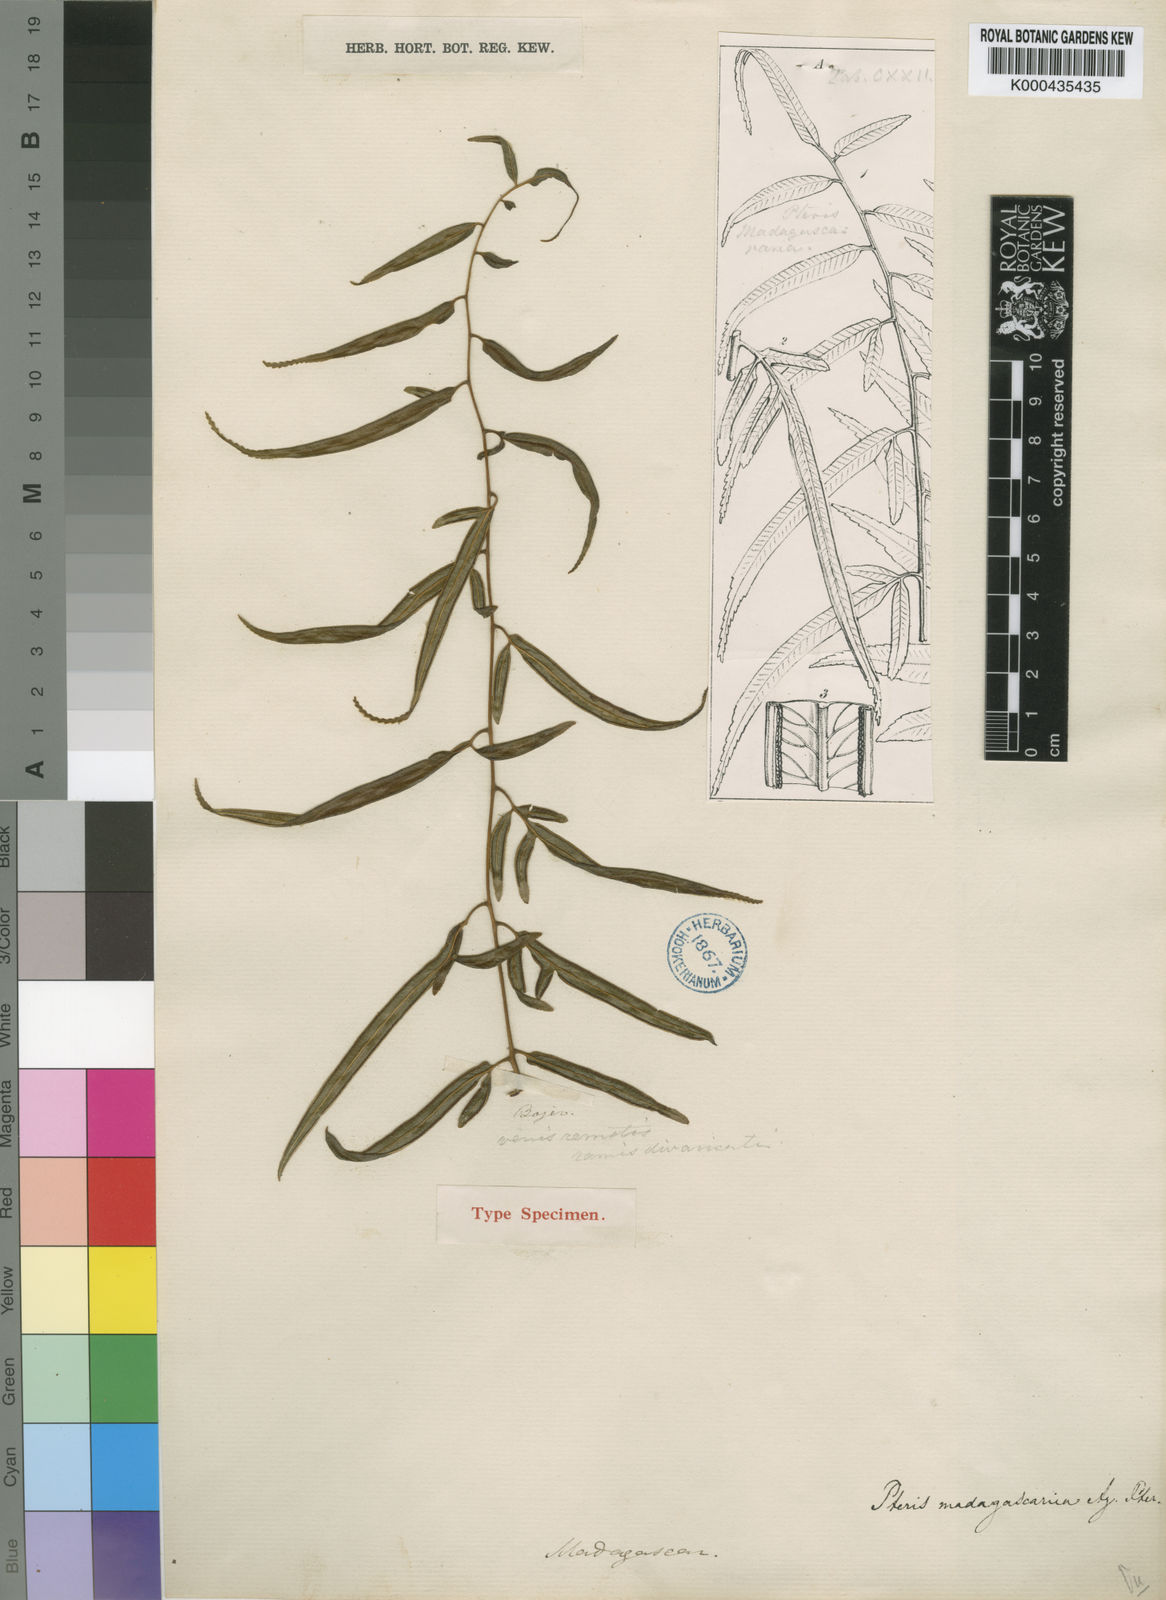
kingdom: Plantae
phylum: Tracheophyta
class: Polypodiopsida
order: Polypodiales
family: Pteridaceae
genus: Pteris
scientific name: Pteris madagascarica
